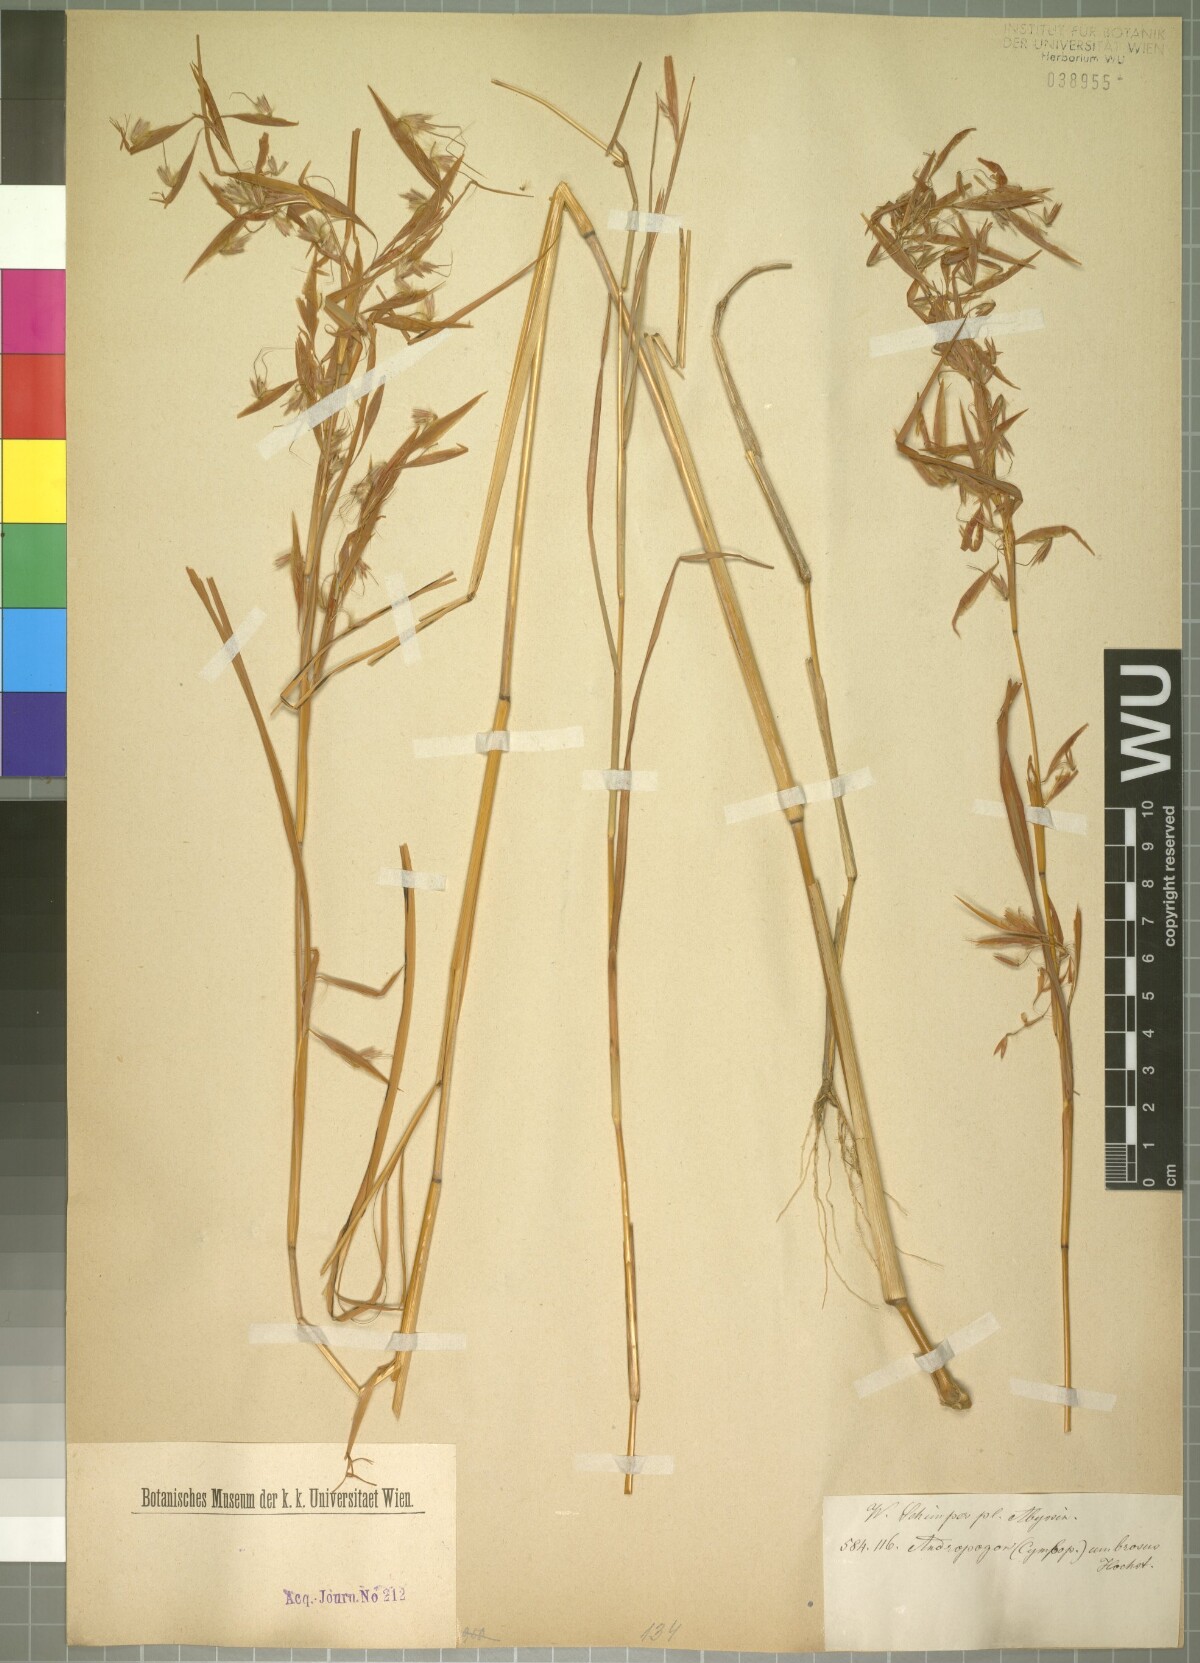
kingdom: Plantae
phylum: Tracheophyta
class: Liliopsida
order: Poales
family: Poaceae
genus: Hyparrhenia
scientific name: Hyparrhenia umbrosa
